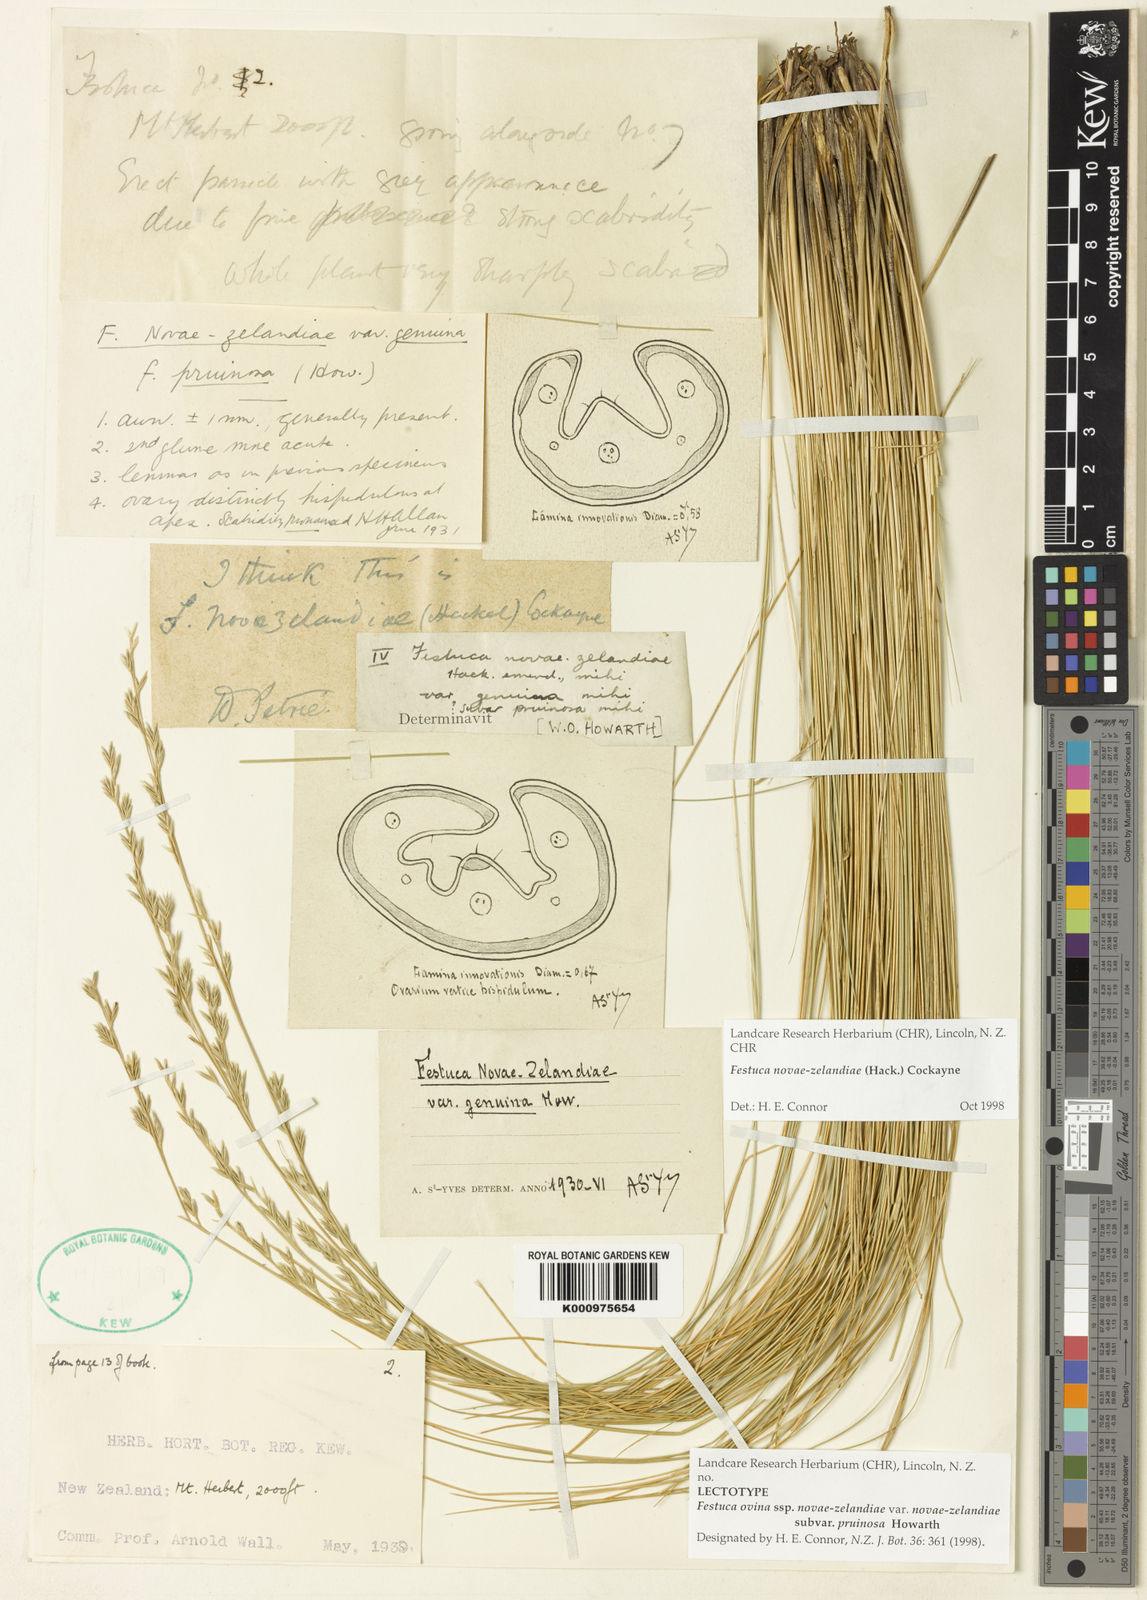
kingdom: Plantae
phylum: Tracheophyta
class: Liliopsida
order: Poales
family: Poaceae
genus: Festuca
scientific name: Festuca
